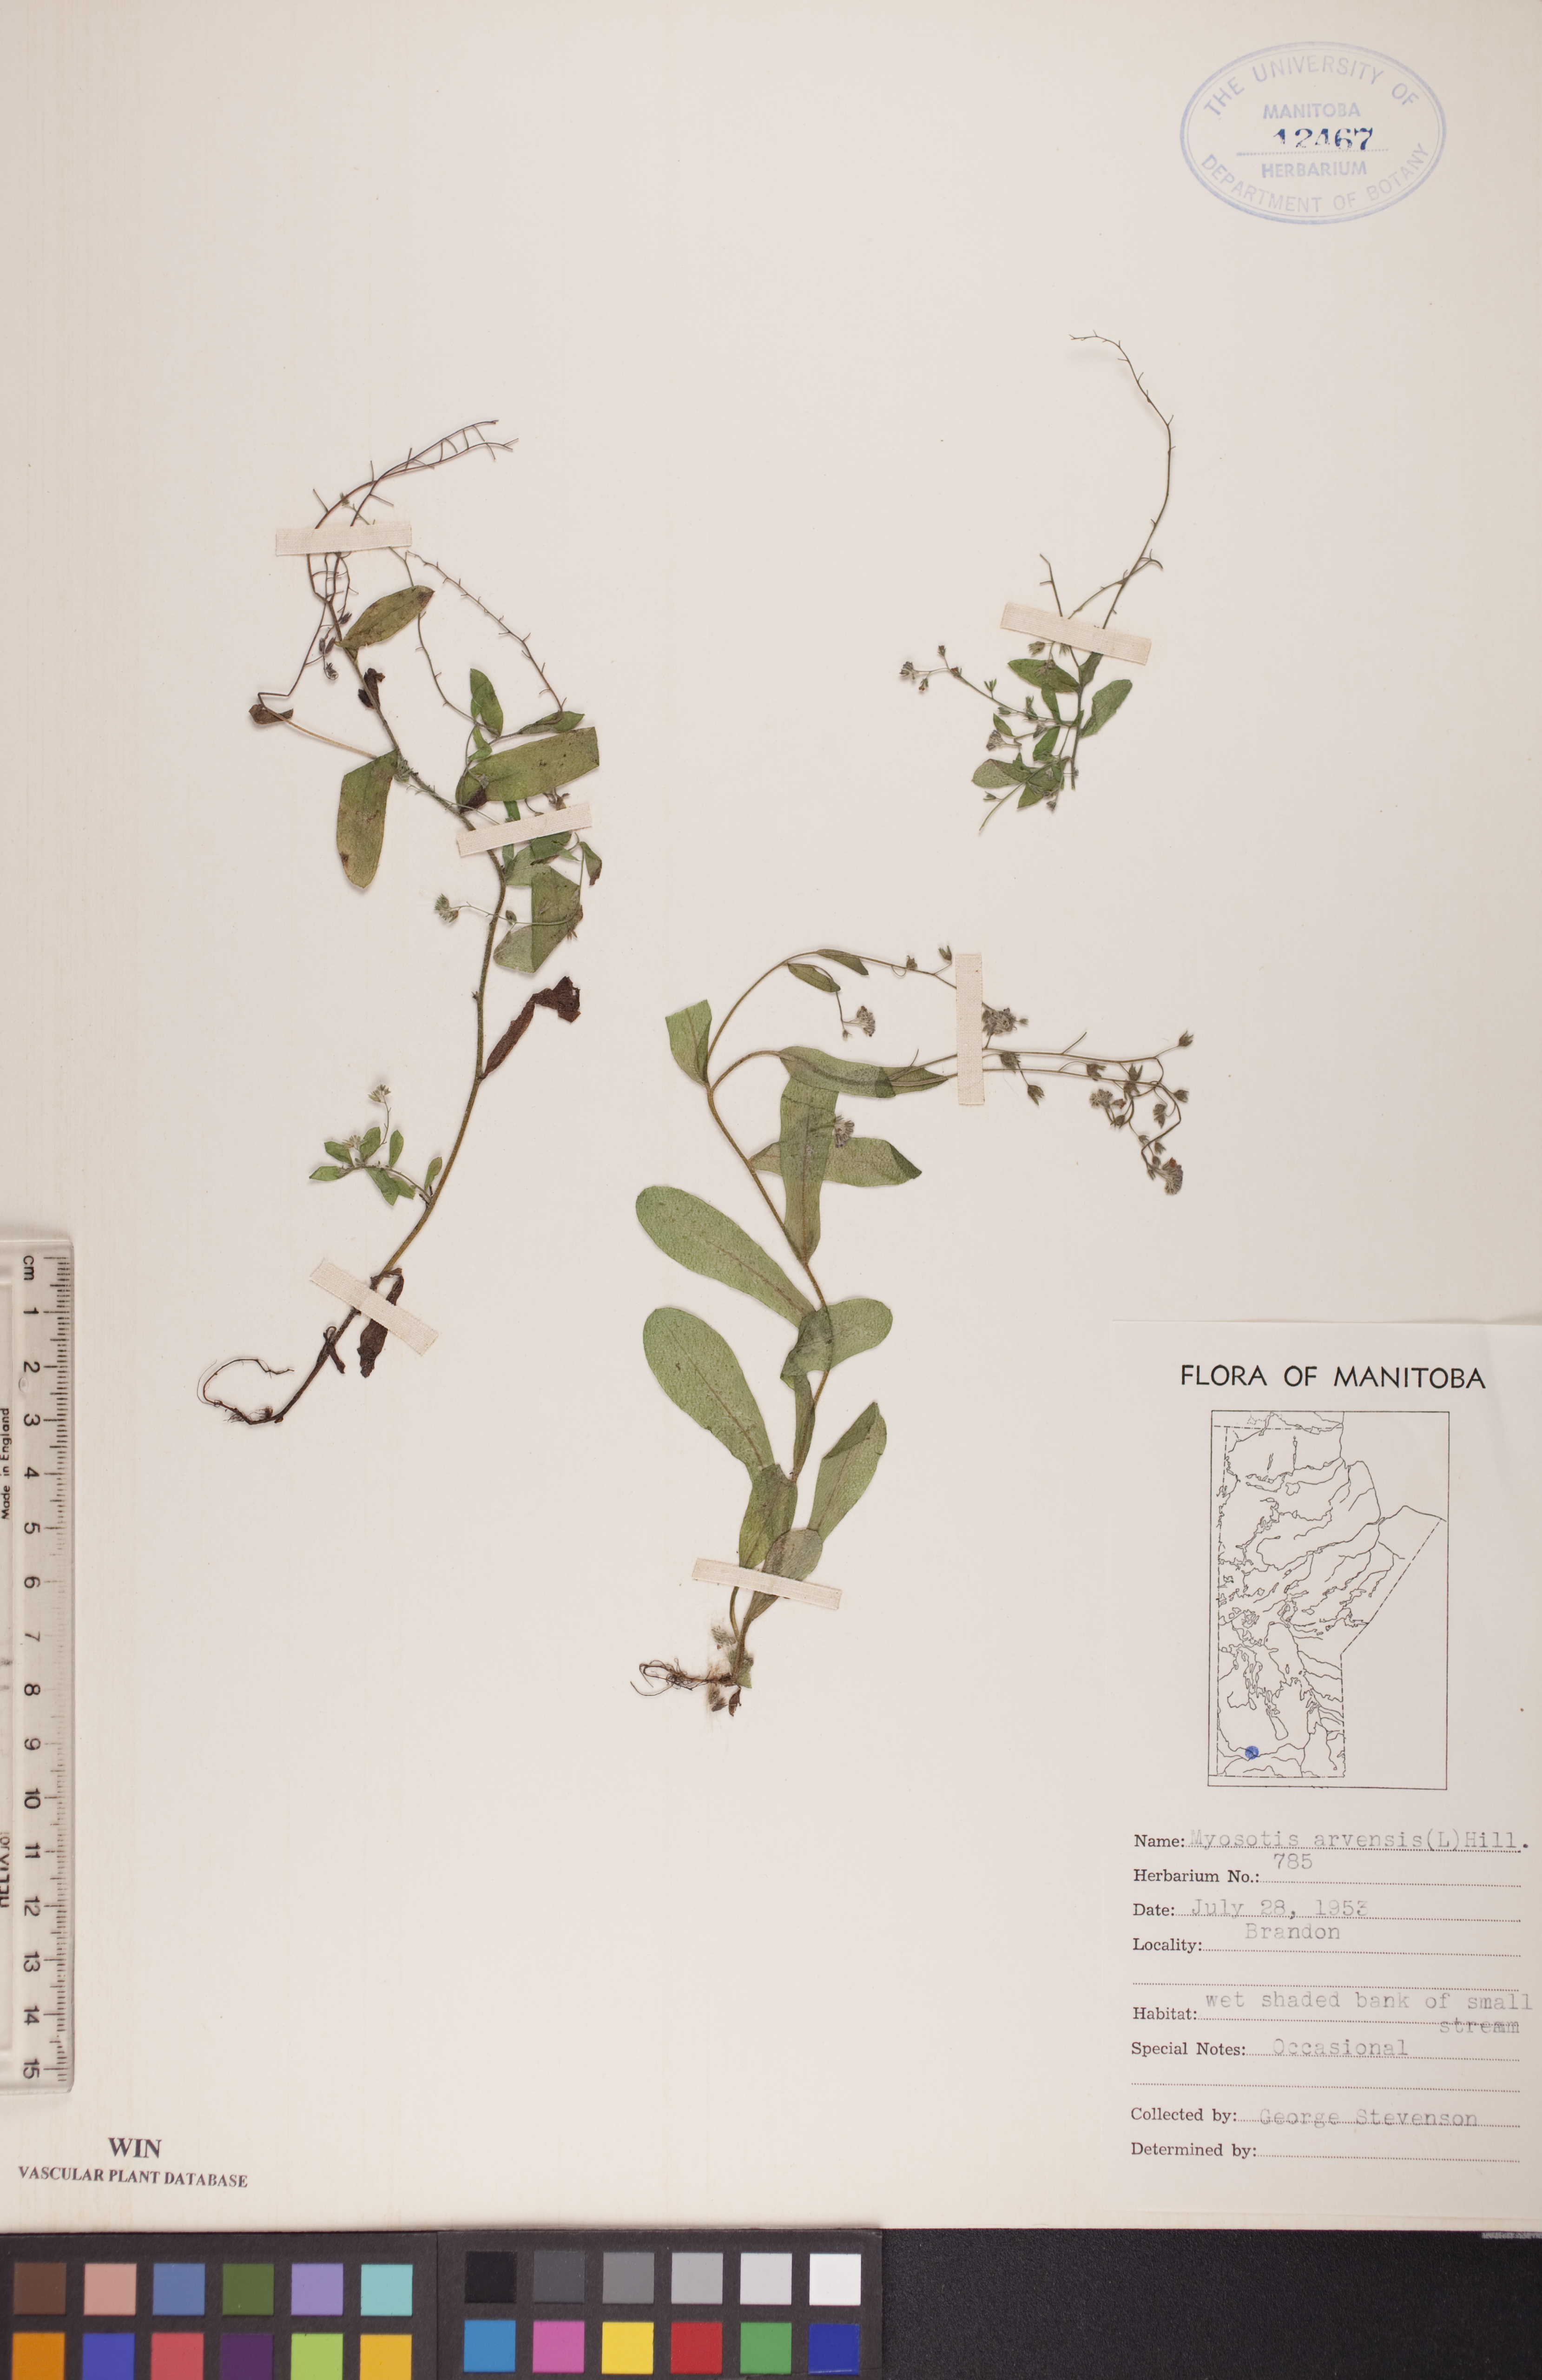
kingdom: Plantae
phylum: Tracheophyta
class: Magnoliopsida
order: Boraginales
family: Boraginaceae
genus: Myosotis
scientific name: Myosotis arvensis
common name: Field forget-me-not
